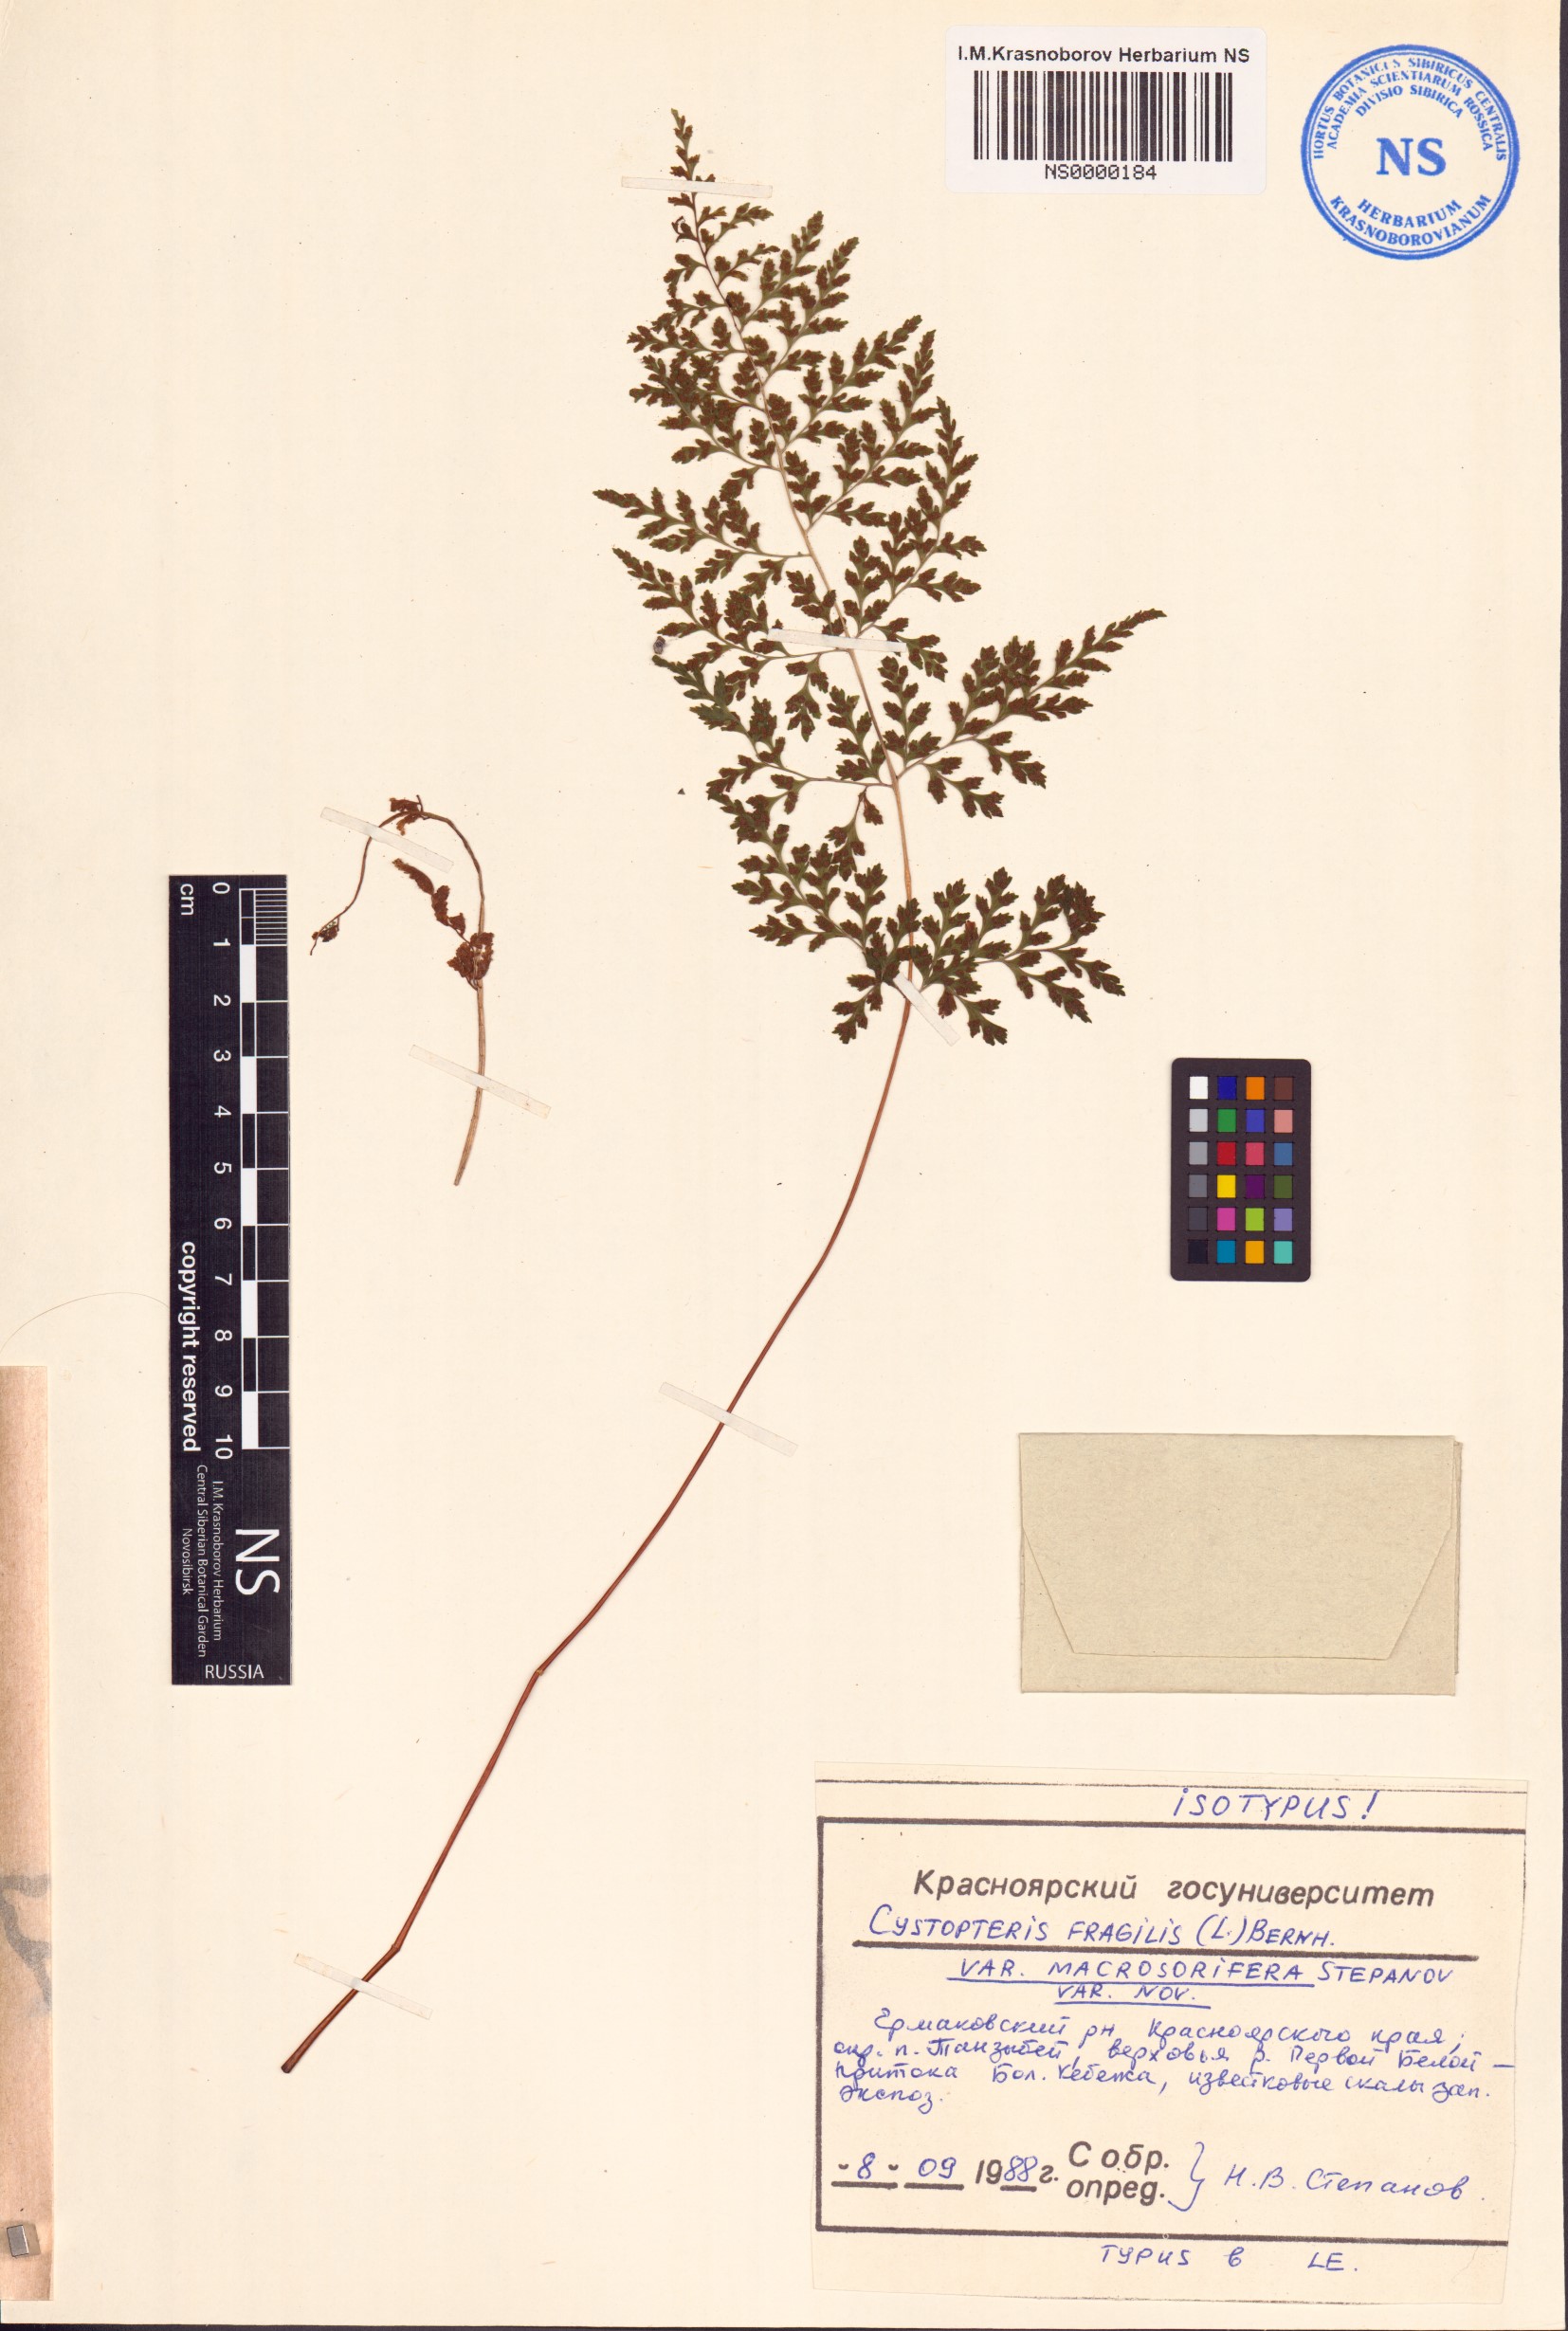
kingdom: Plantae
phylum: Tracheophyta
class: Polypodiopsida
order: Polypodiales
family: Cystopteridaceae
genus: Cystopteris
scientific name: Cystopteris fragilis
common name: Brittle bladder fern
